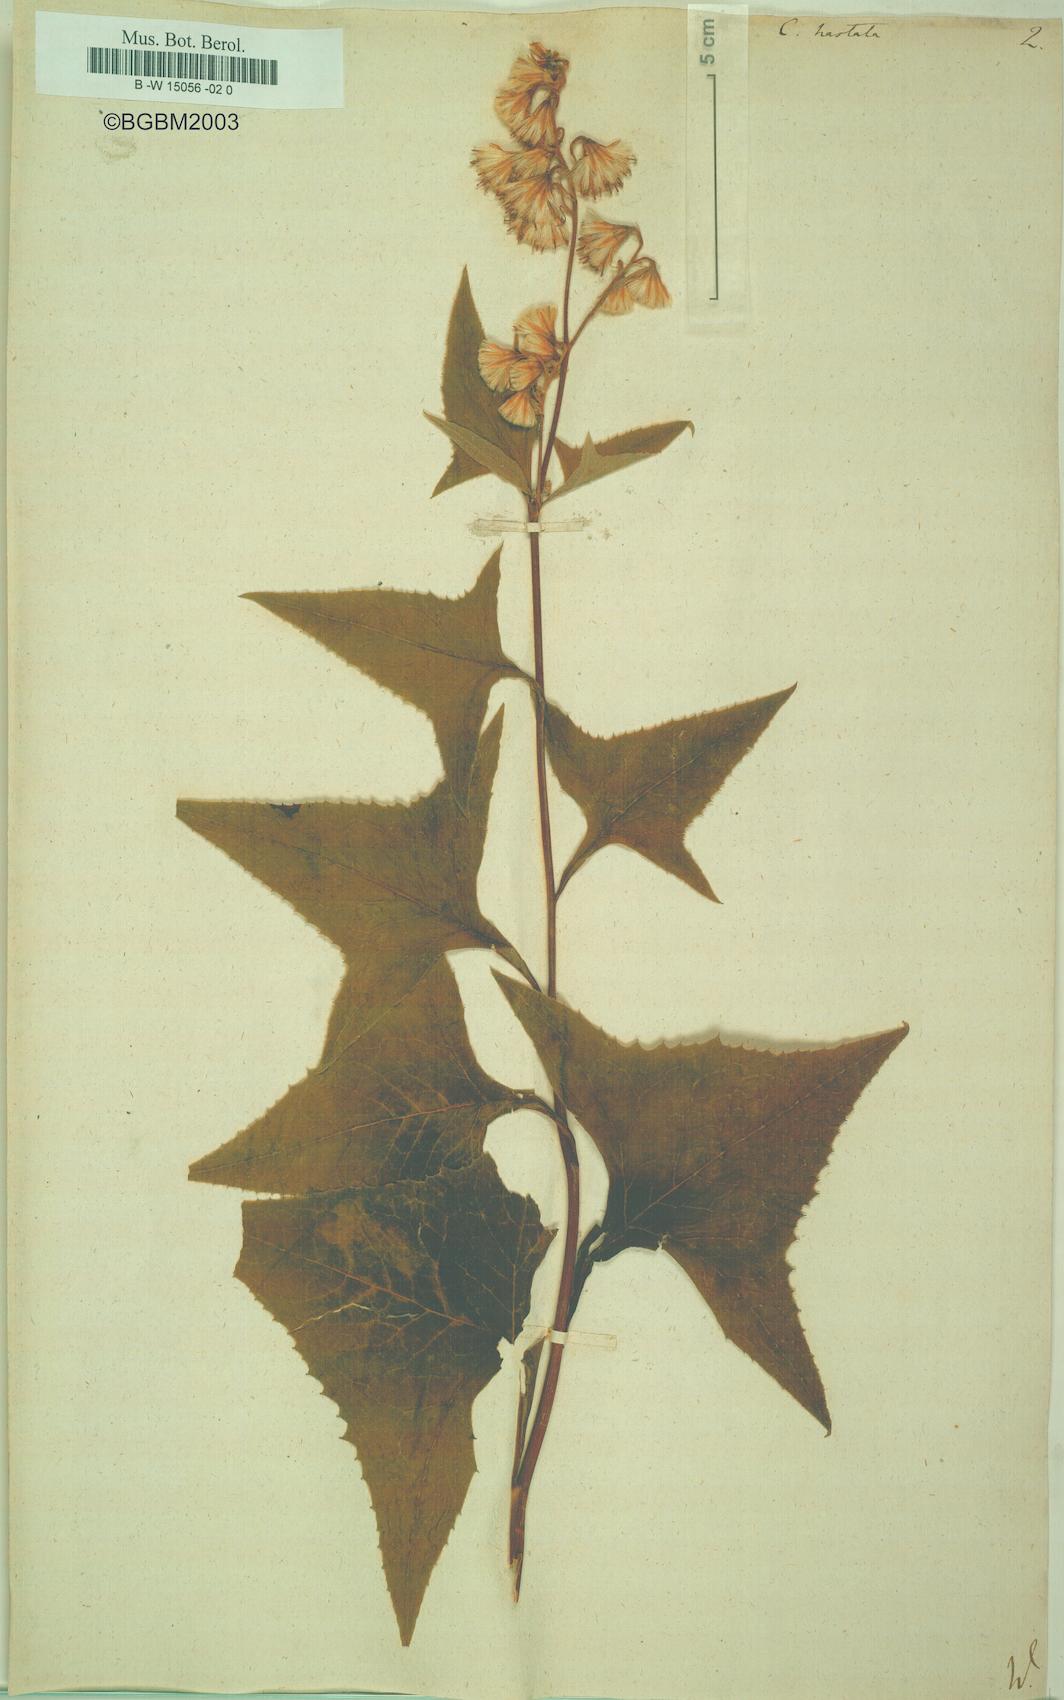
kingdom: Plantae
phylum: Tracheophyta
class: Magnoliopsida
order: Asterales
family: Asteraceae
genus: Parasenecio
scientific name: Parasenecio hastatus
